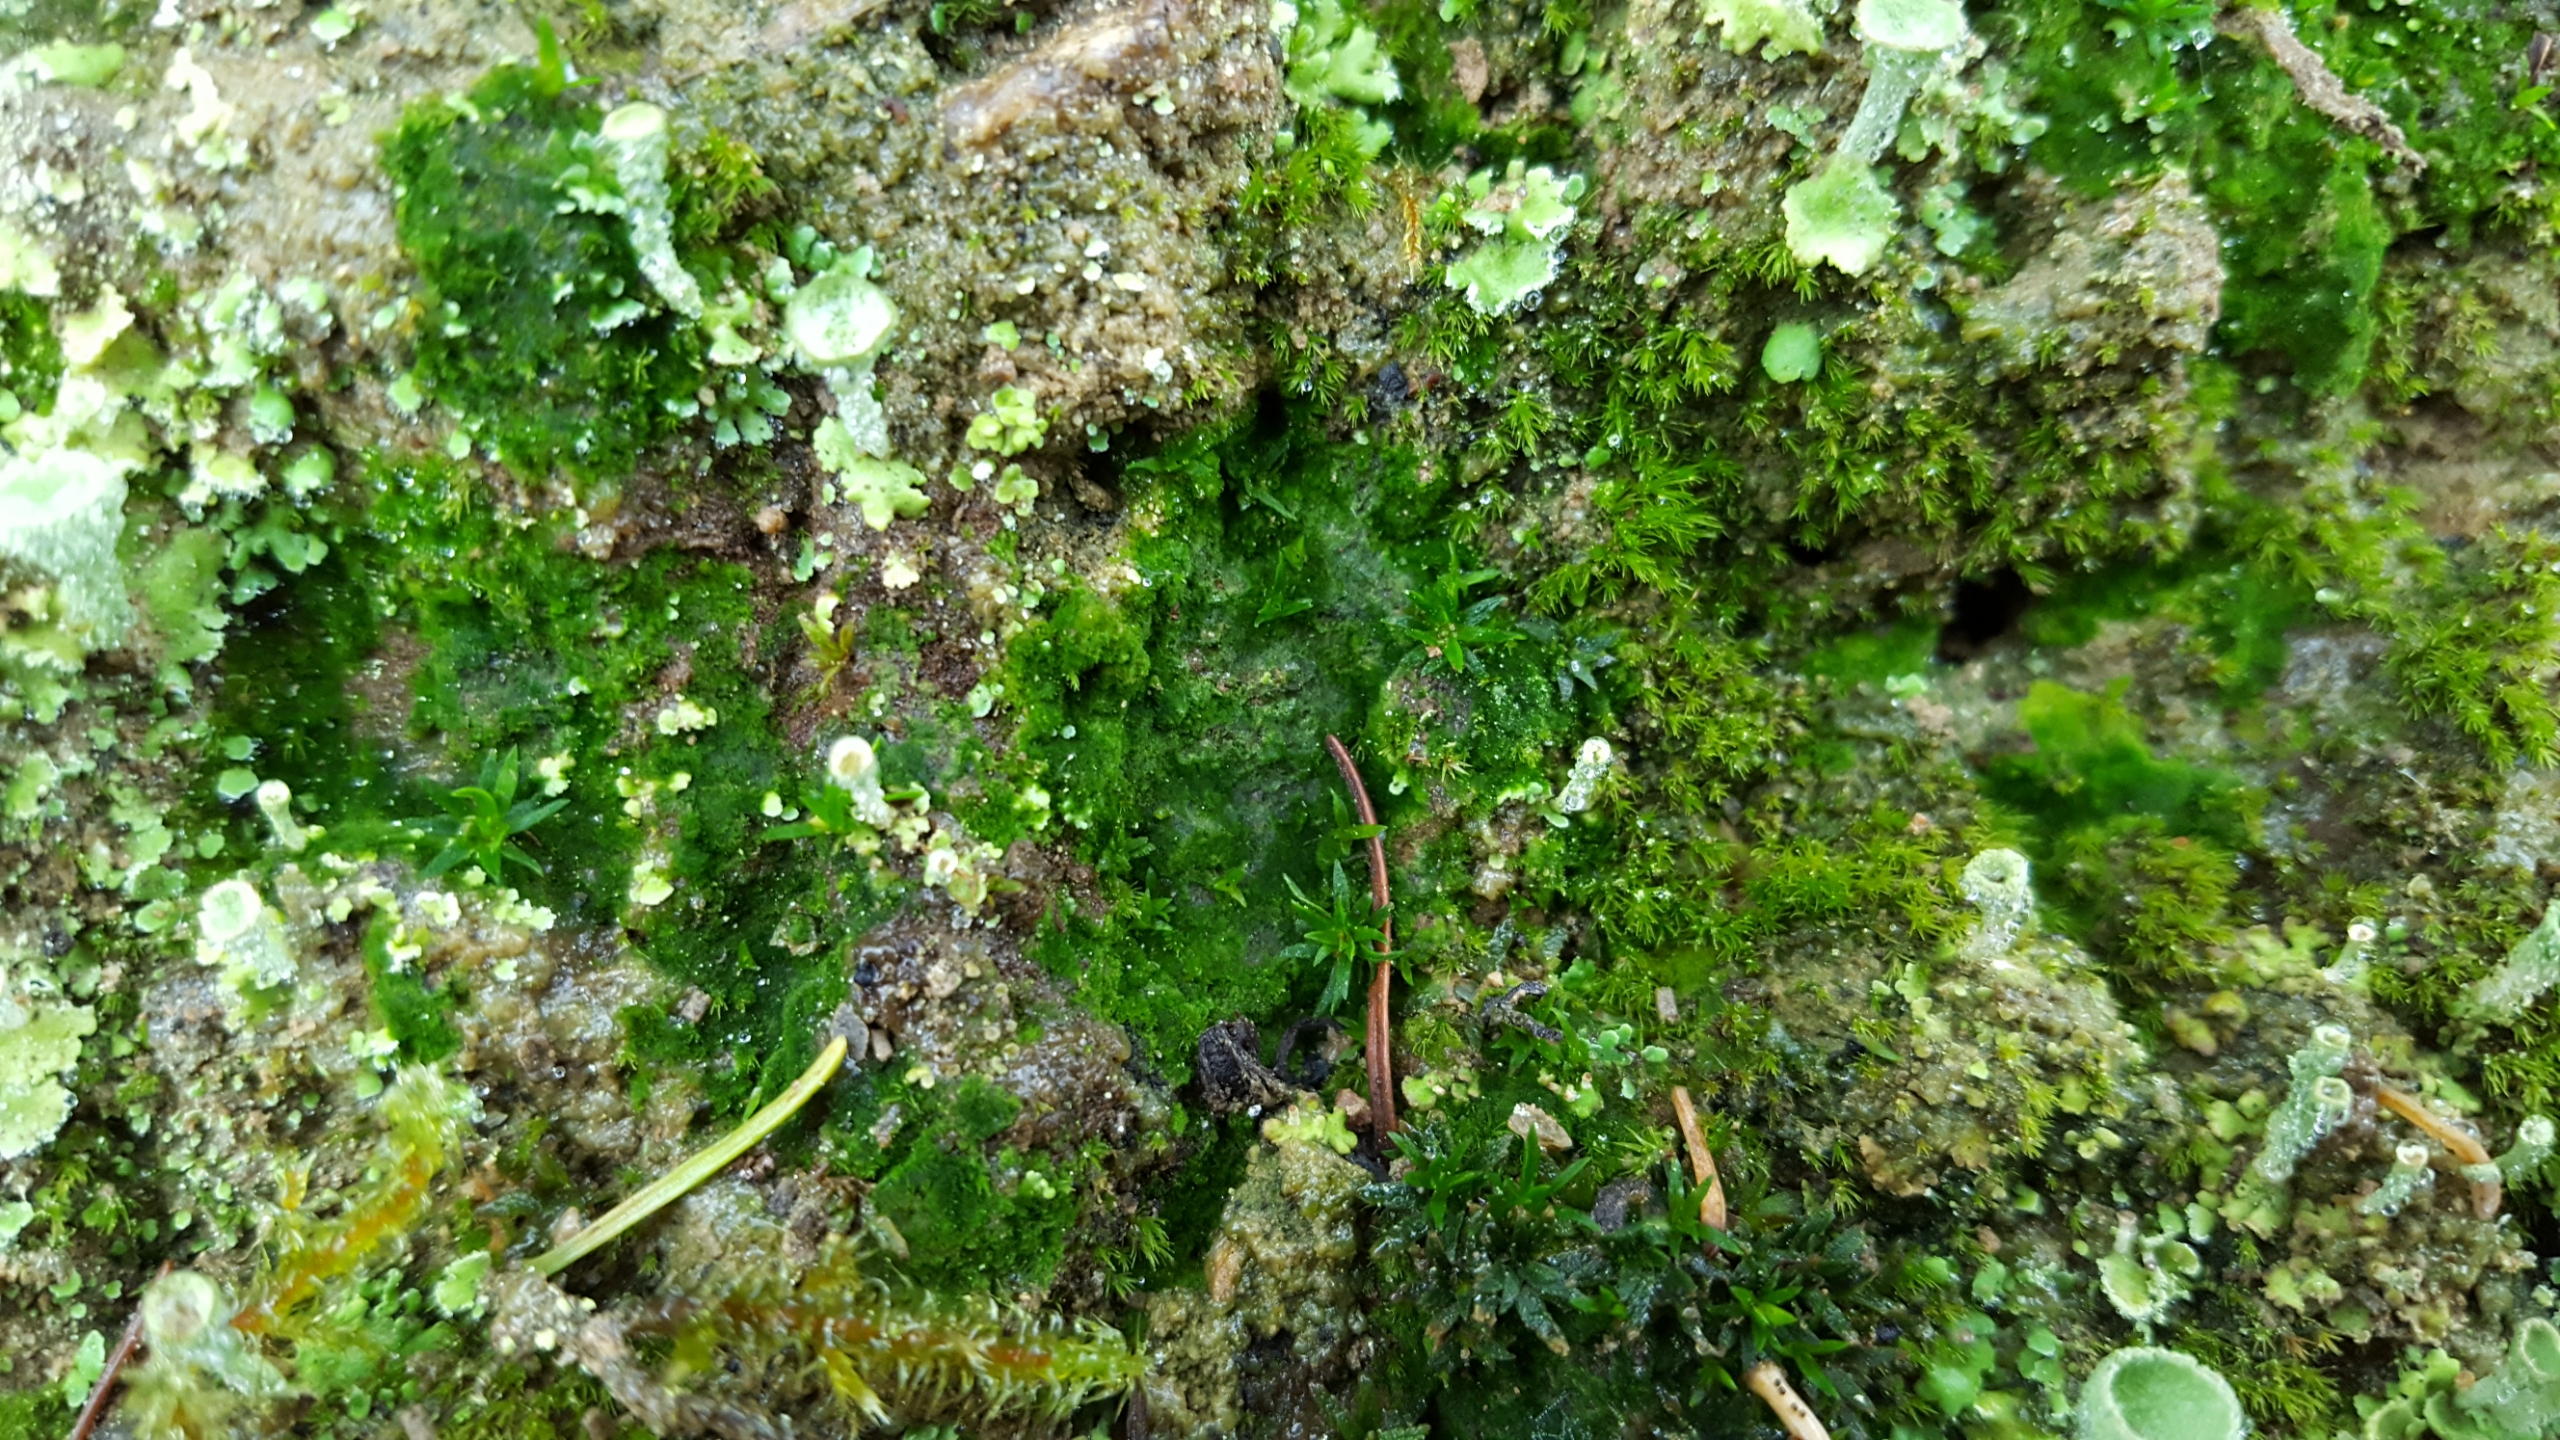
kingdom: Plantae
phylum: Bryophyta
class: Polytrichopsida
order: Polytrichales
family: Polytrichaceae
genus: Pogonatum
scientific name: Pogonatum
